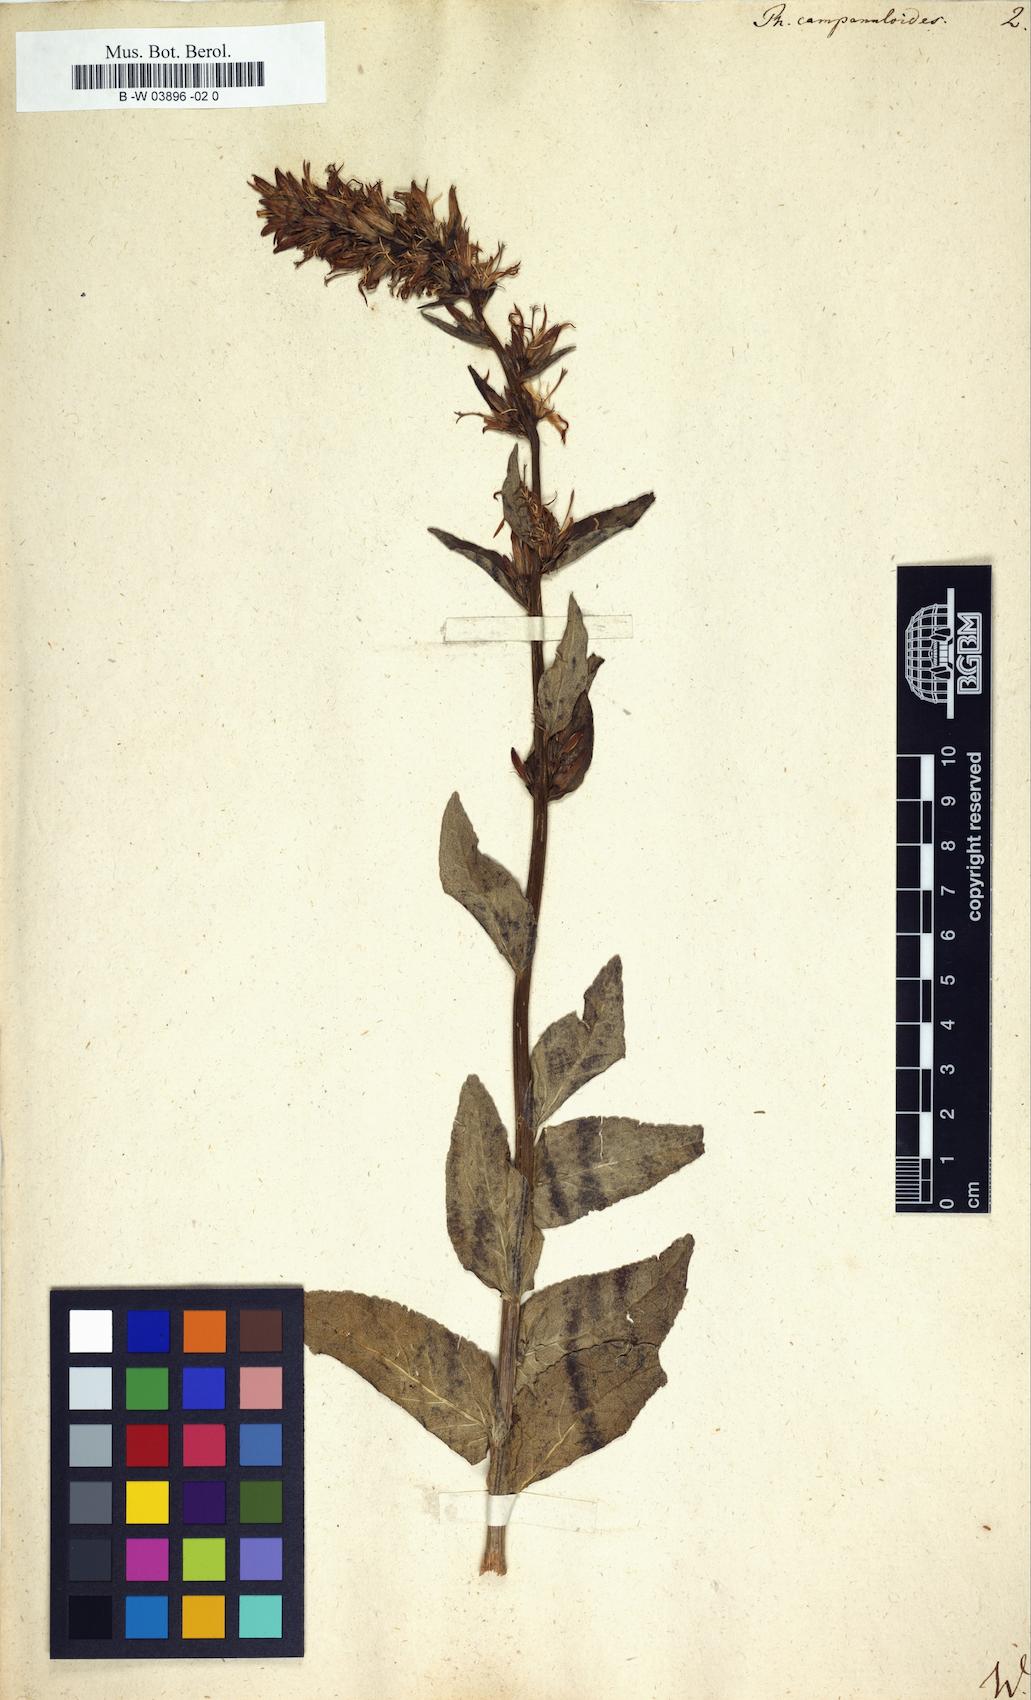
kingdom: Plantae
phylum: Tracheophyta
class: Magnoliopsida
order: Asterales
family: Campanulaceae
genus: Phyteuma
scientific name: Phyteuma campanuloides
